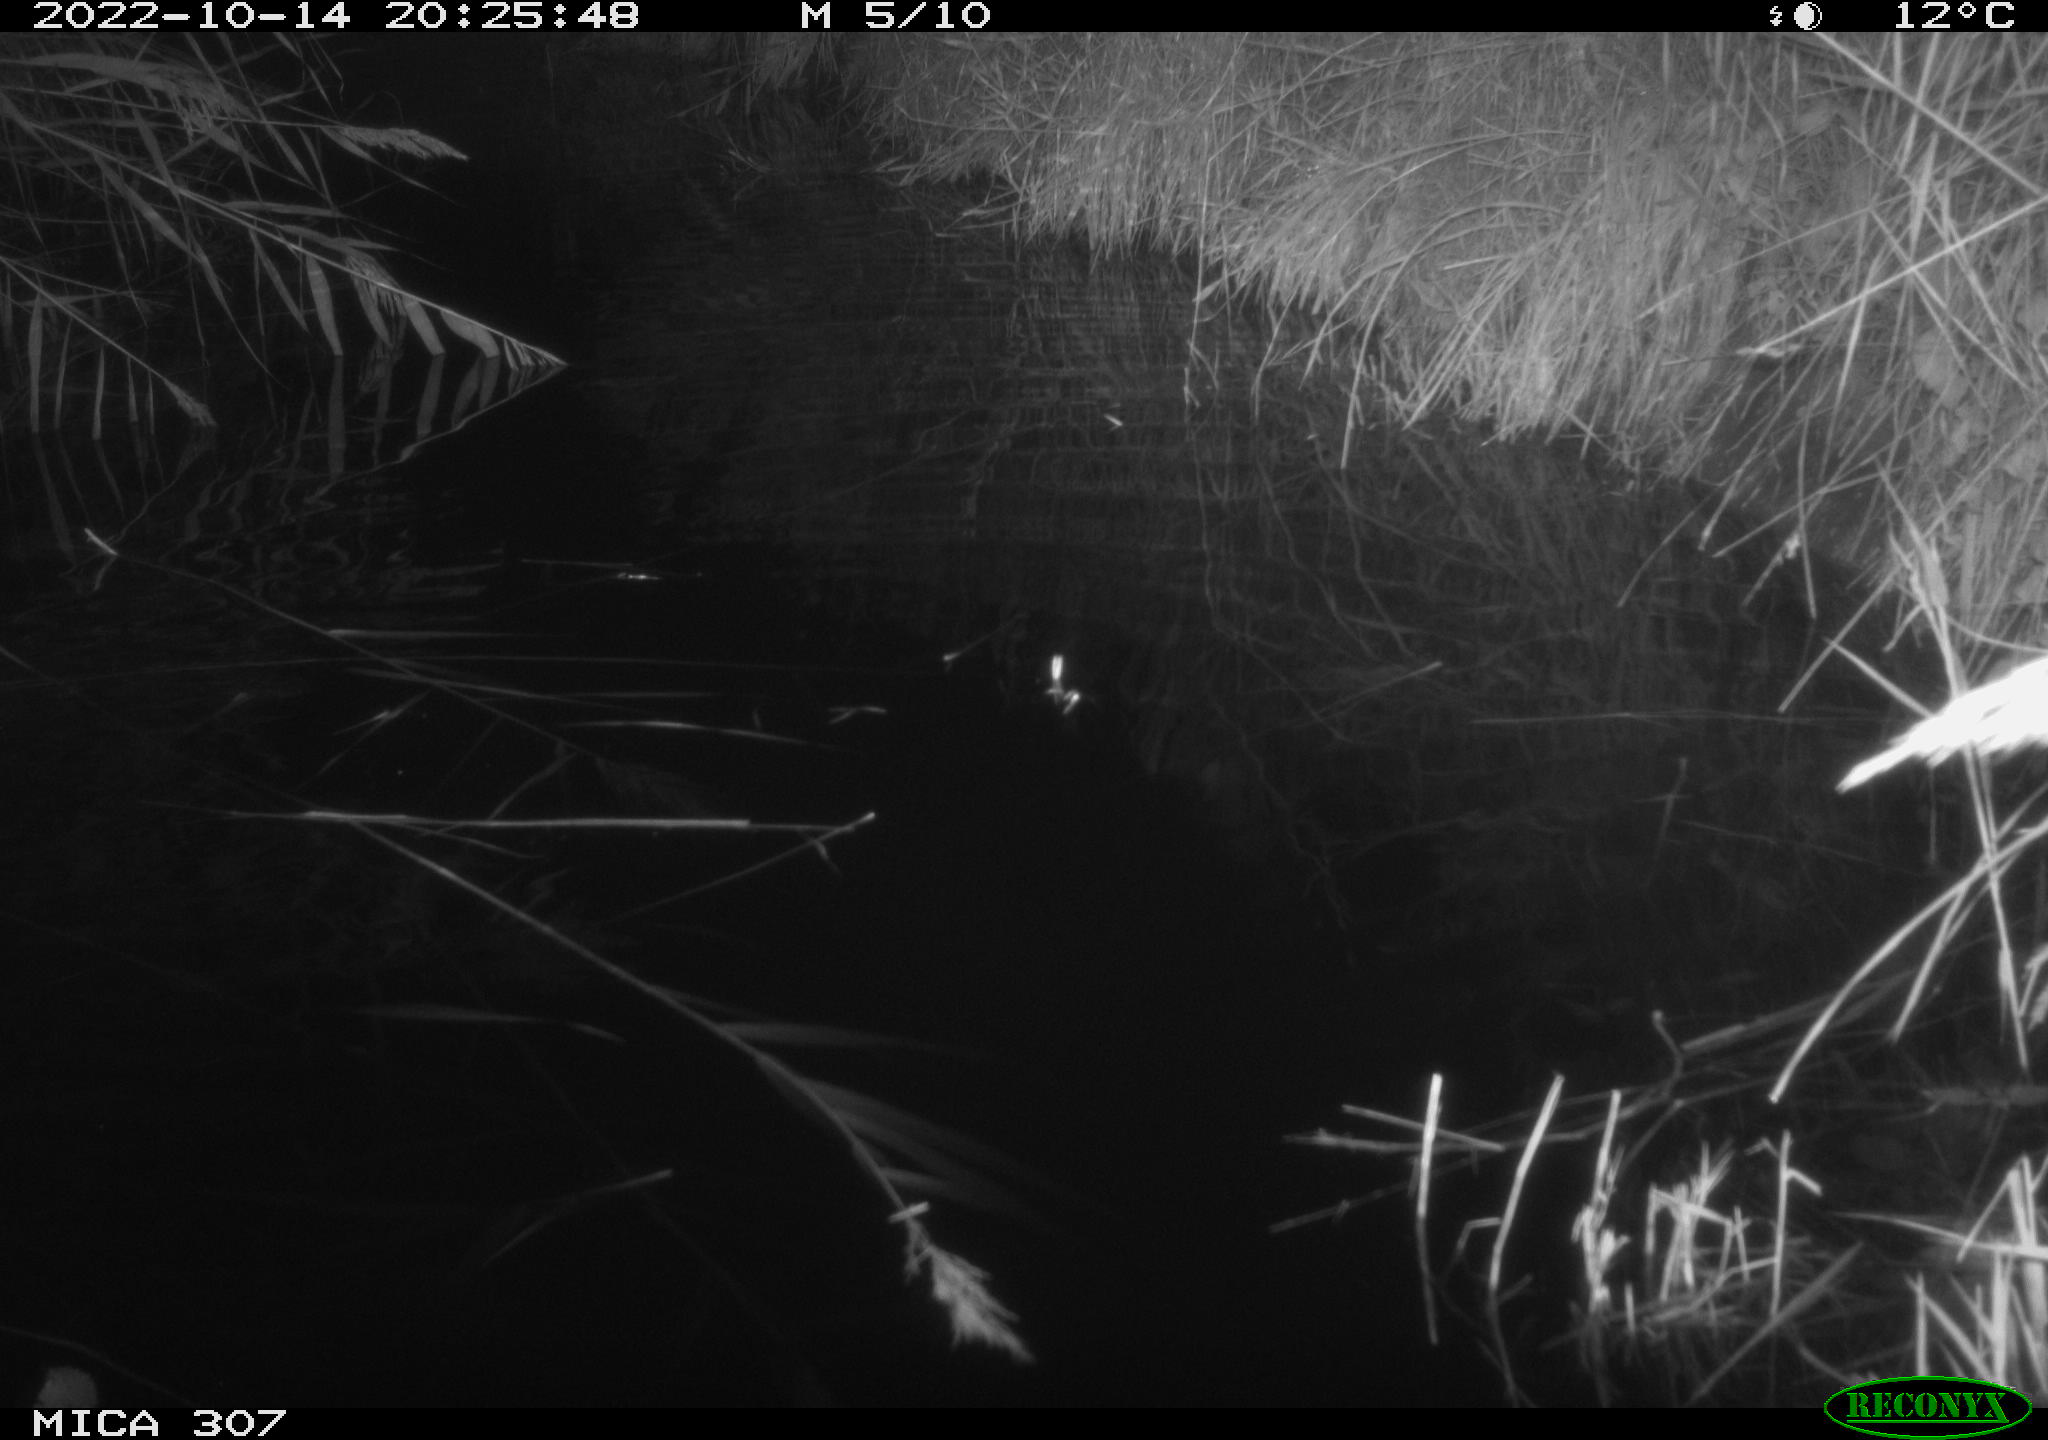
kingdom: Animalia
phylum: Chordata
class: Mammalia
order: Rodentia
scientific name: Rodentia
